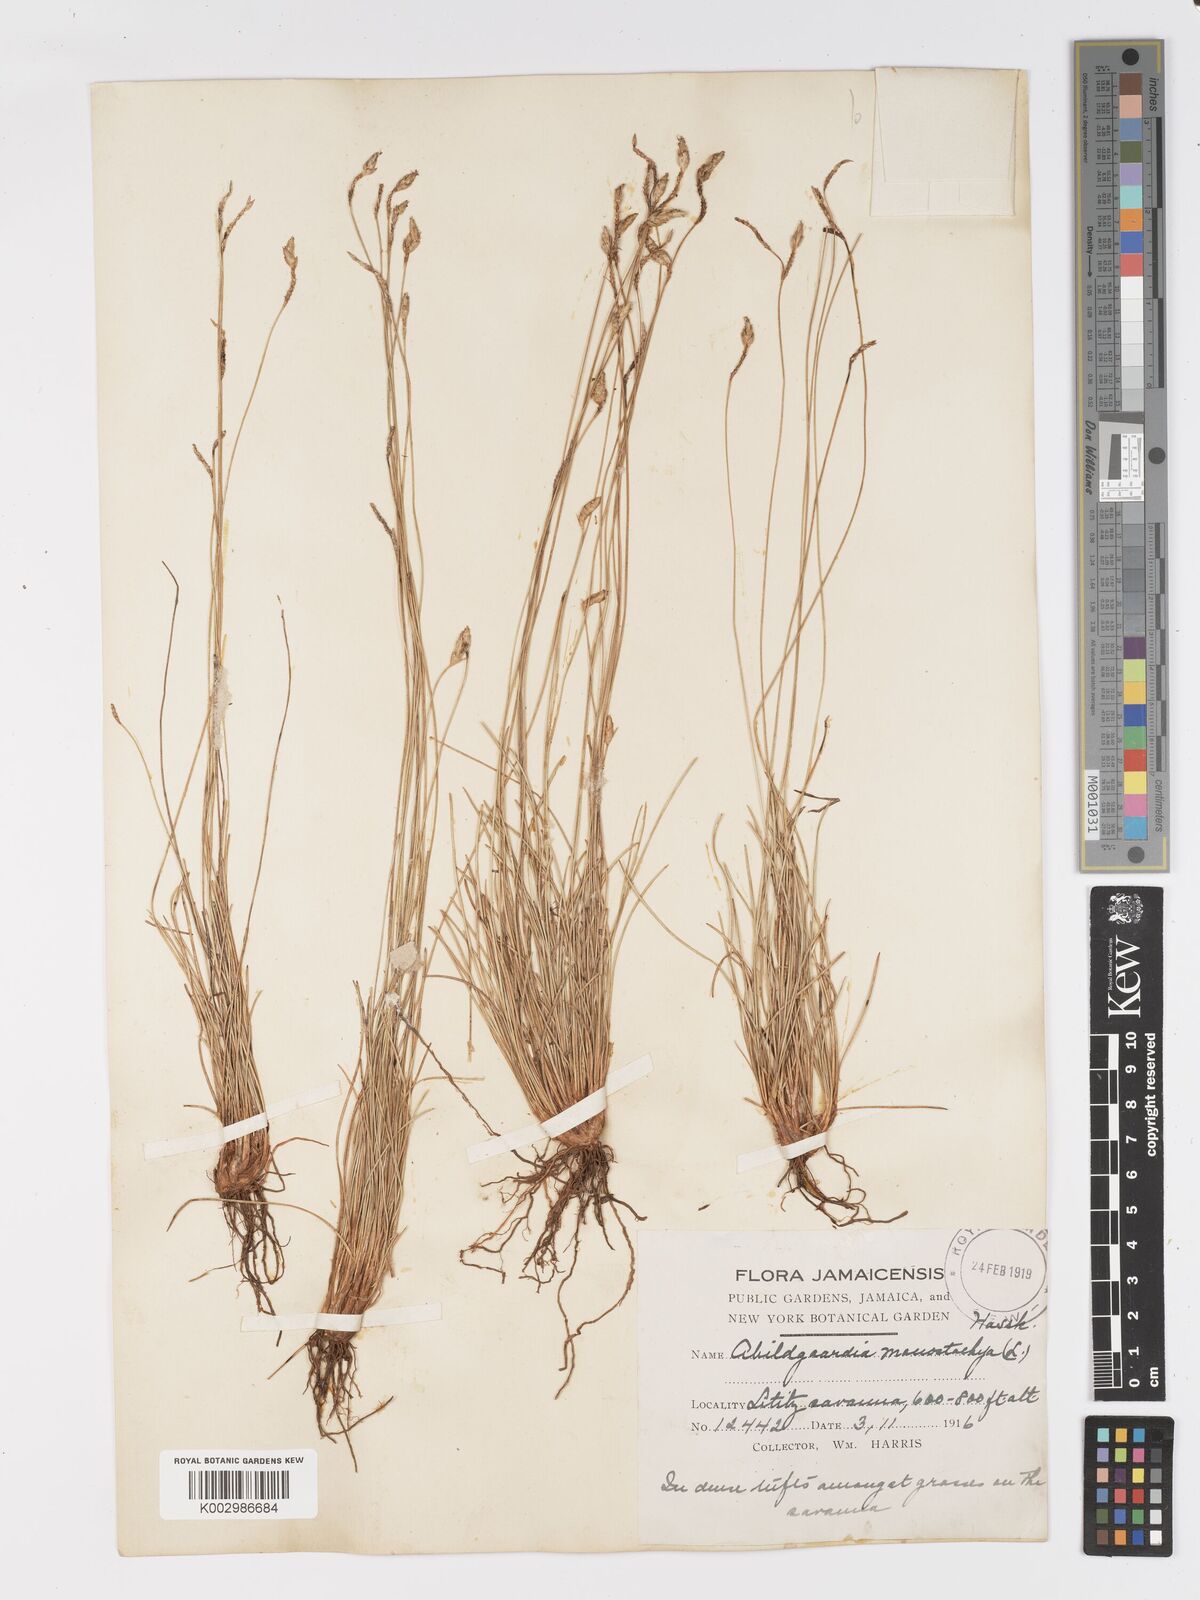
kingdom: Plantae
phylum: Tracheophyta
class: Liliopsida
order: Poales
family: Cyperaceae
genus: Abildgaardia
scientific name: Abildgaardia ovata
